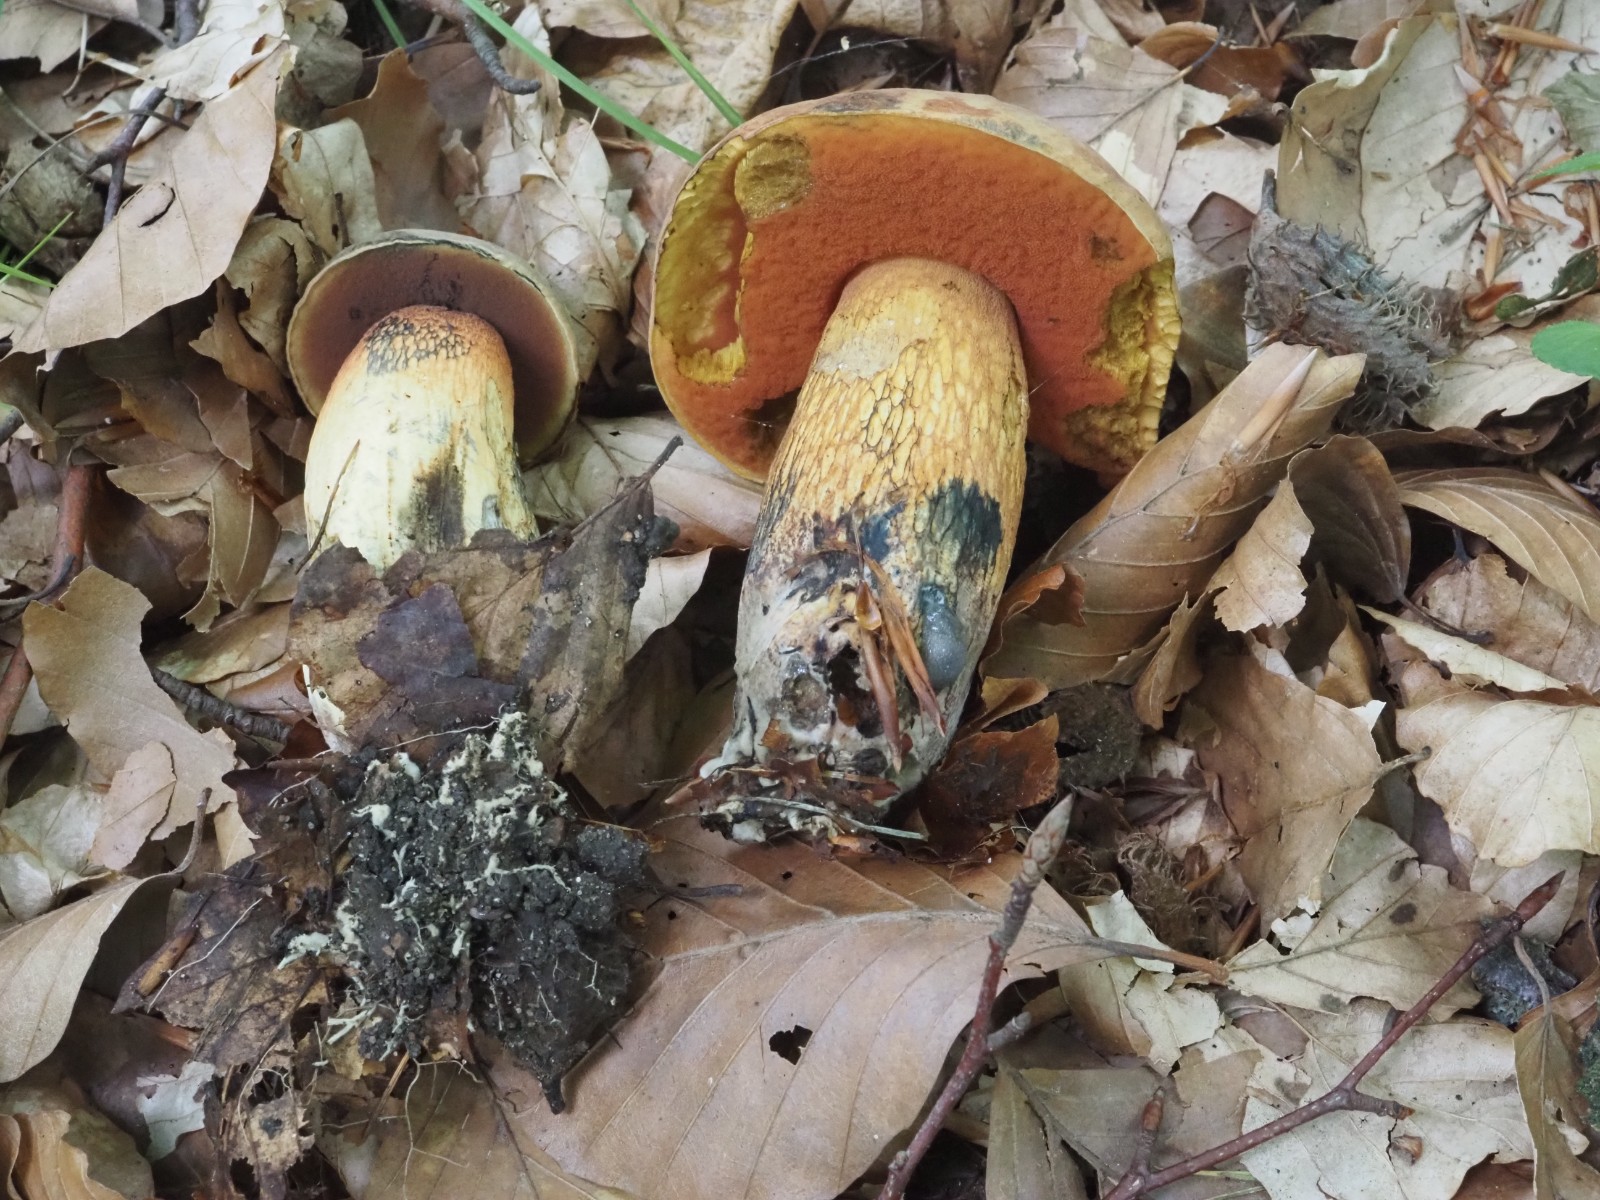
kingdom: Fungi
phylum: Basidiomycota
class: Agaricomycetes
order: Boletales
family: Boletaceae
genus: Suillellus
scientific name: Suillellus luridus
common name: netstokket indigorørhat
